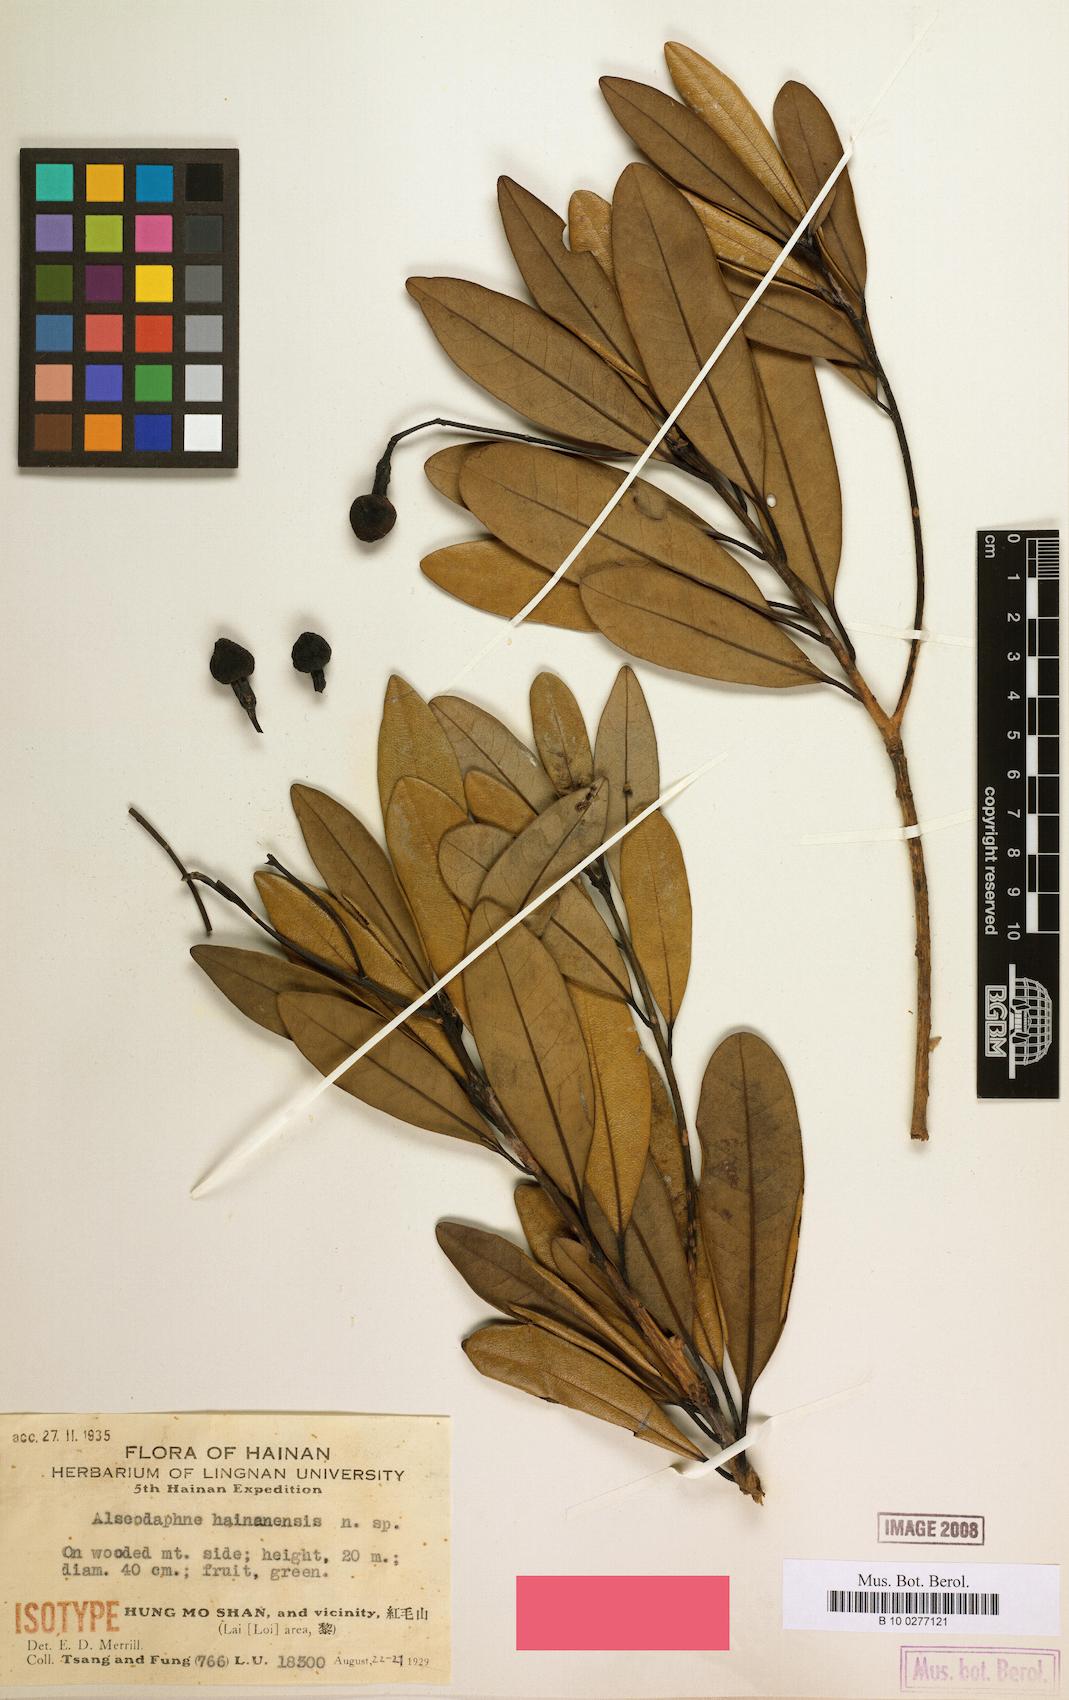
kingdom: Plantae
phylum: Tracheophyta
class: Magnoliopsida
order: Laurales
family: Lauraceae
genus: Alseodaphnopsis
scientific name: Alseodaphnopsis hainanensis
